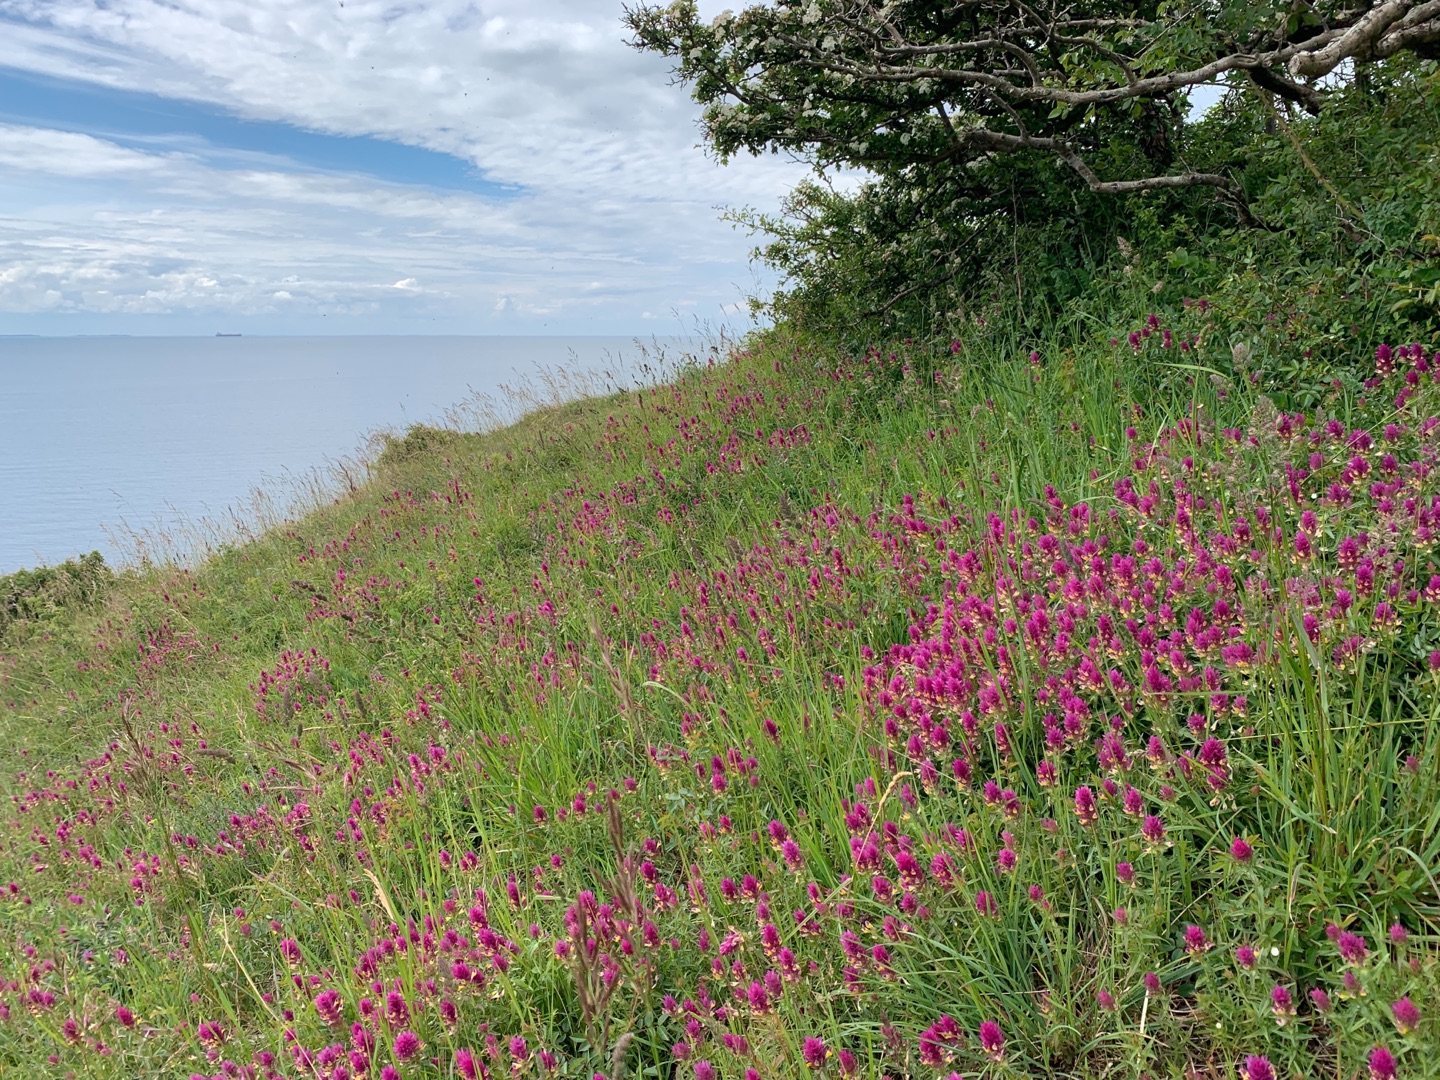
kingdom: Plantae
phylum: Tracheophyta
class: Magnoliopsida
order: Lamiales
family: Orobanchaceae
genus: Melampyrum
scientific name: Melampyrum arvense
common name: Ager-kohvede
